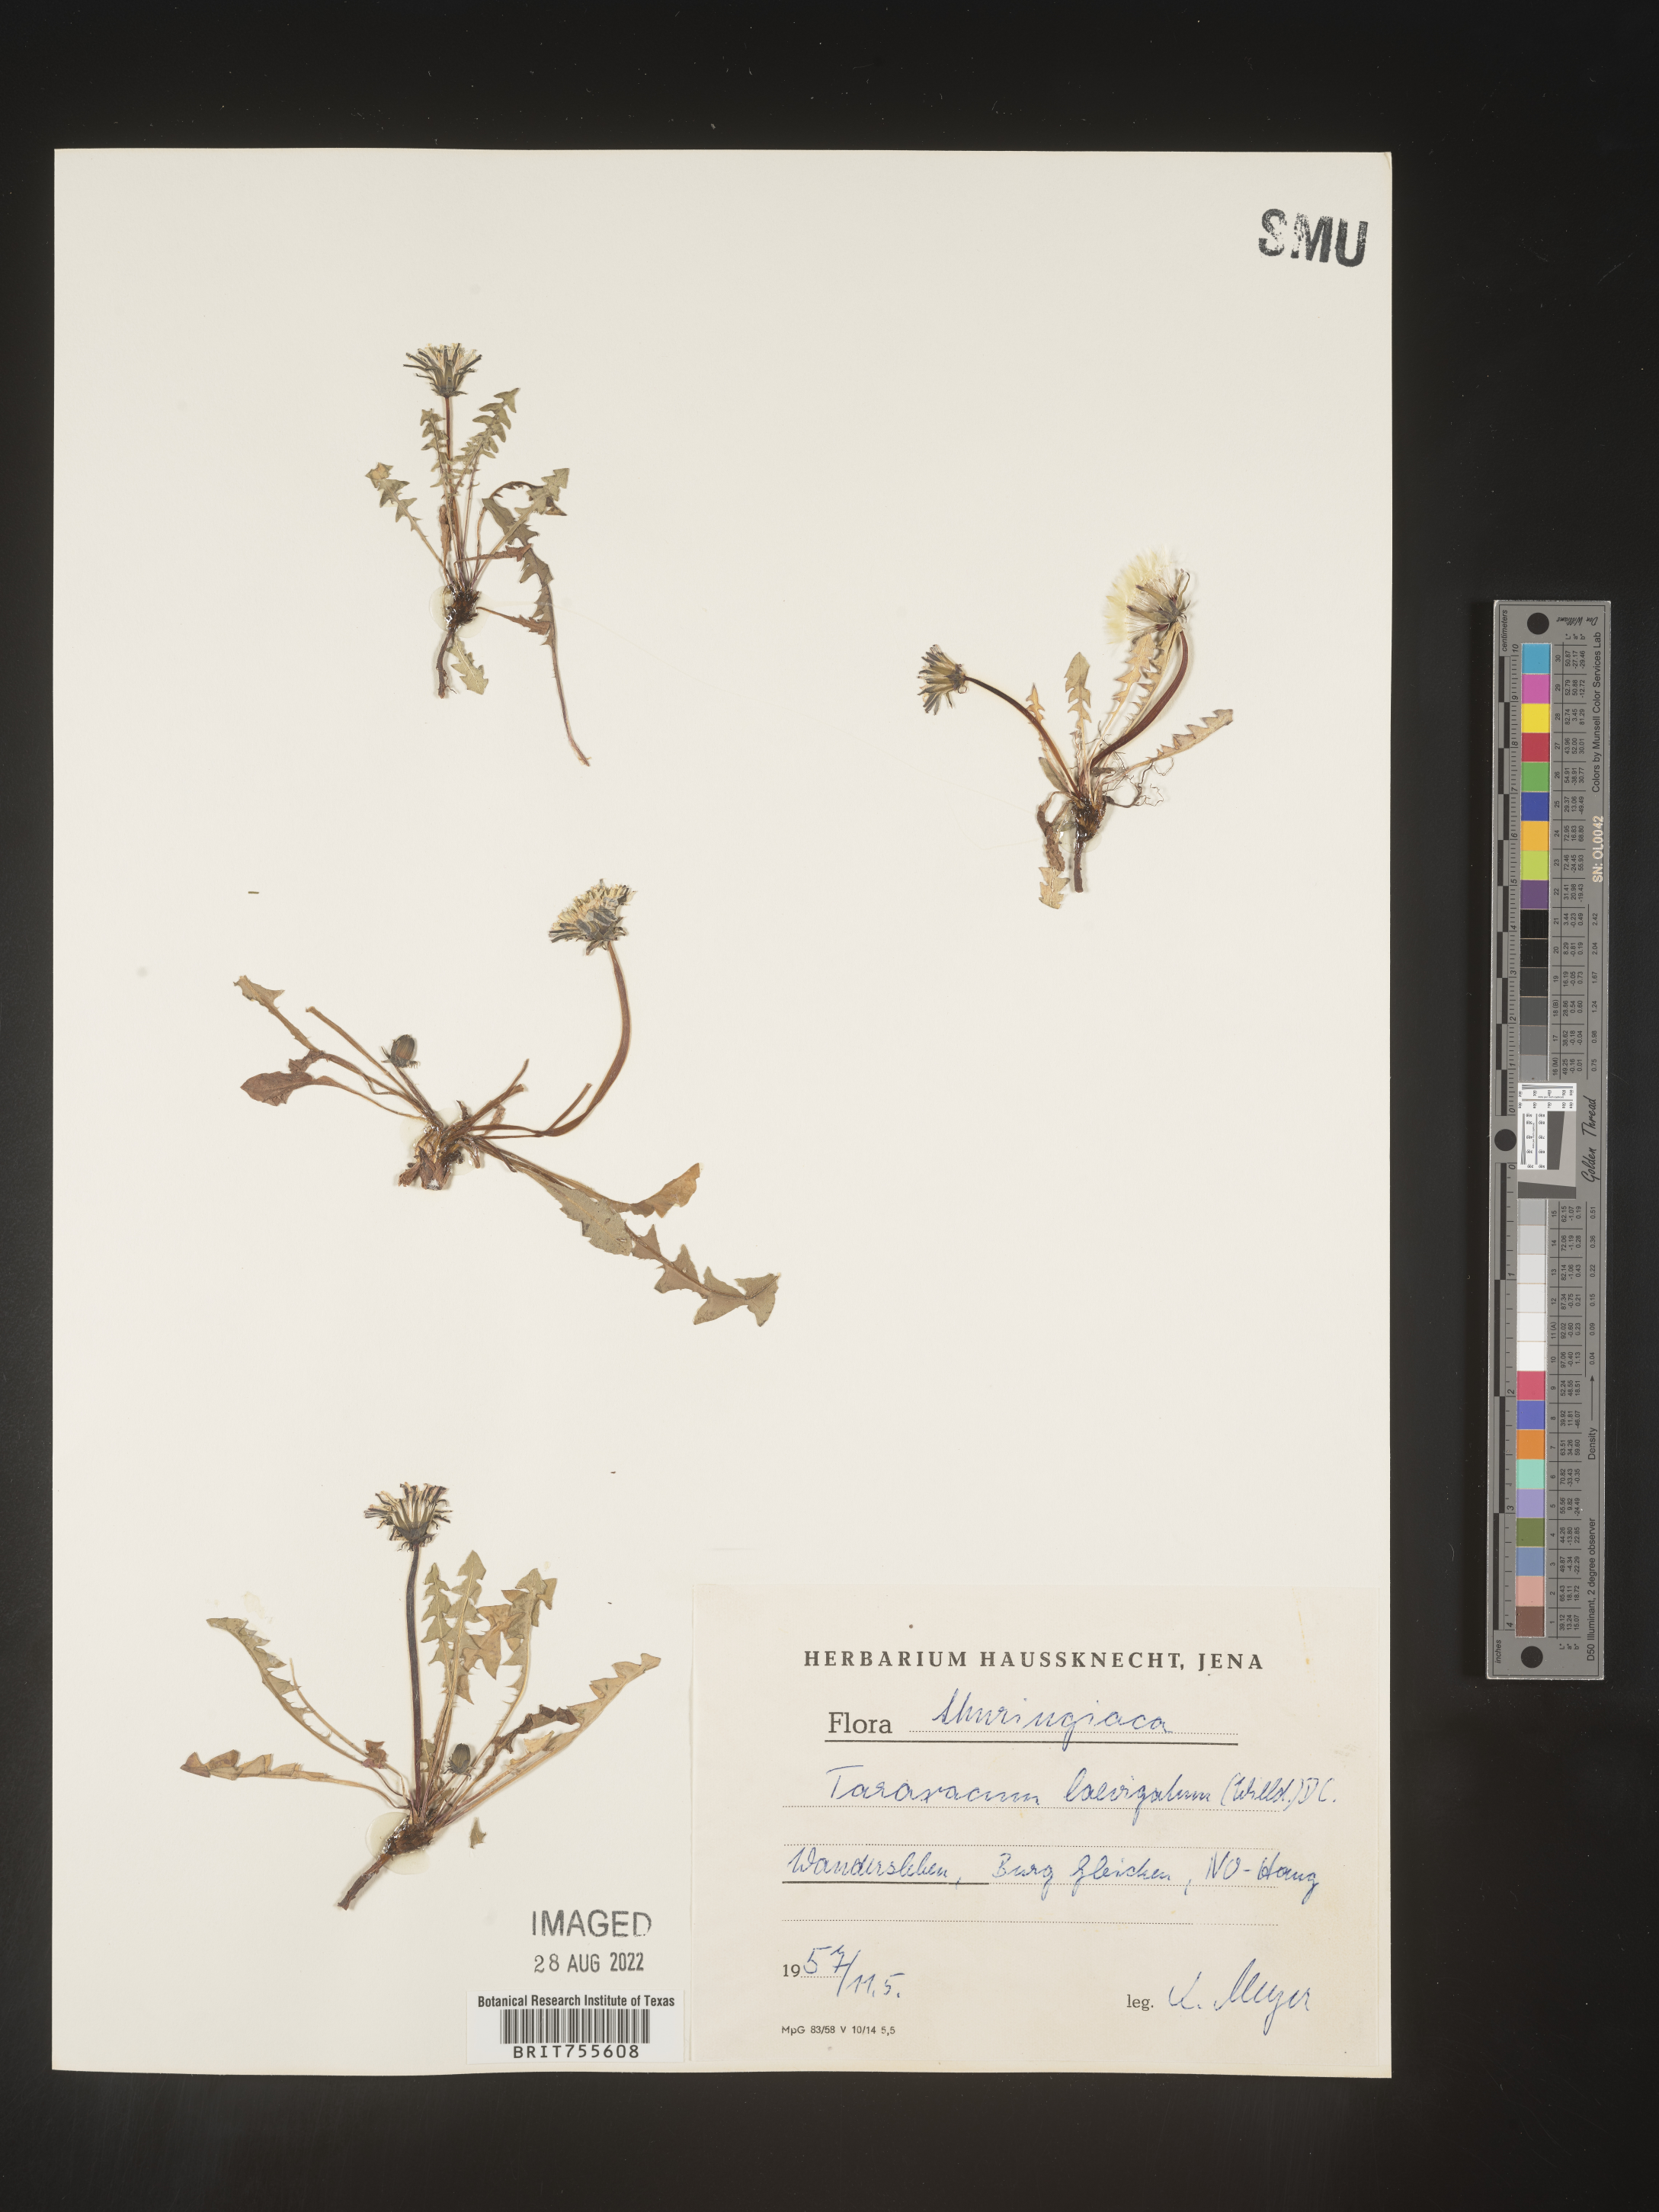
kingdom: Plantae
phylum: Tracheophyta
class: Magnoliopsida
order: Asterales
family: Asteraceae
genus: Taraxacum
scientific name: Taraxacum
